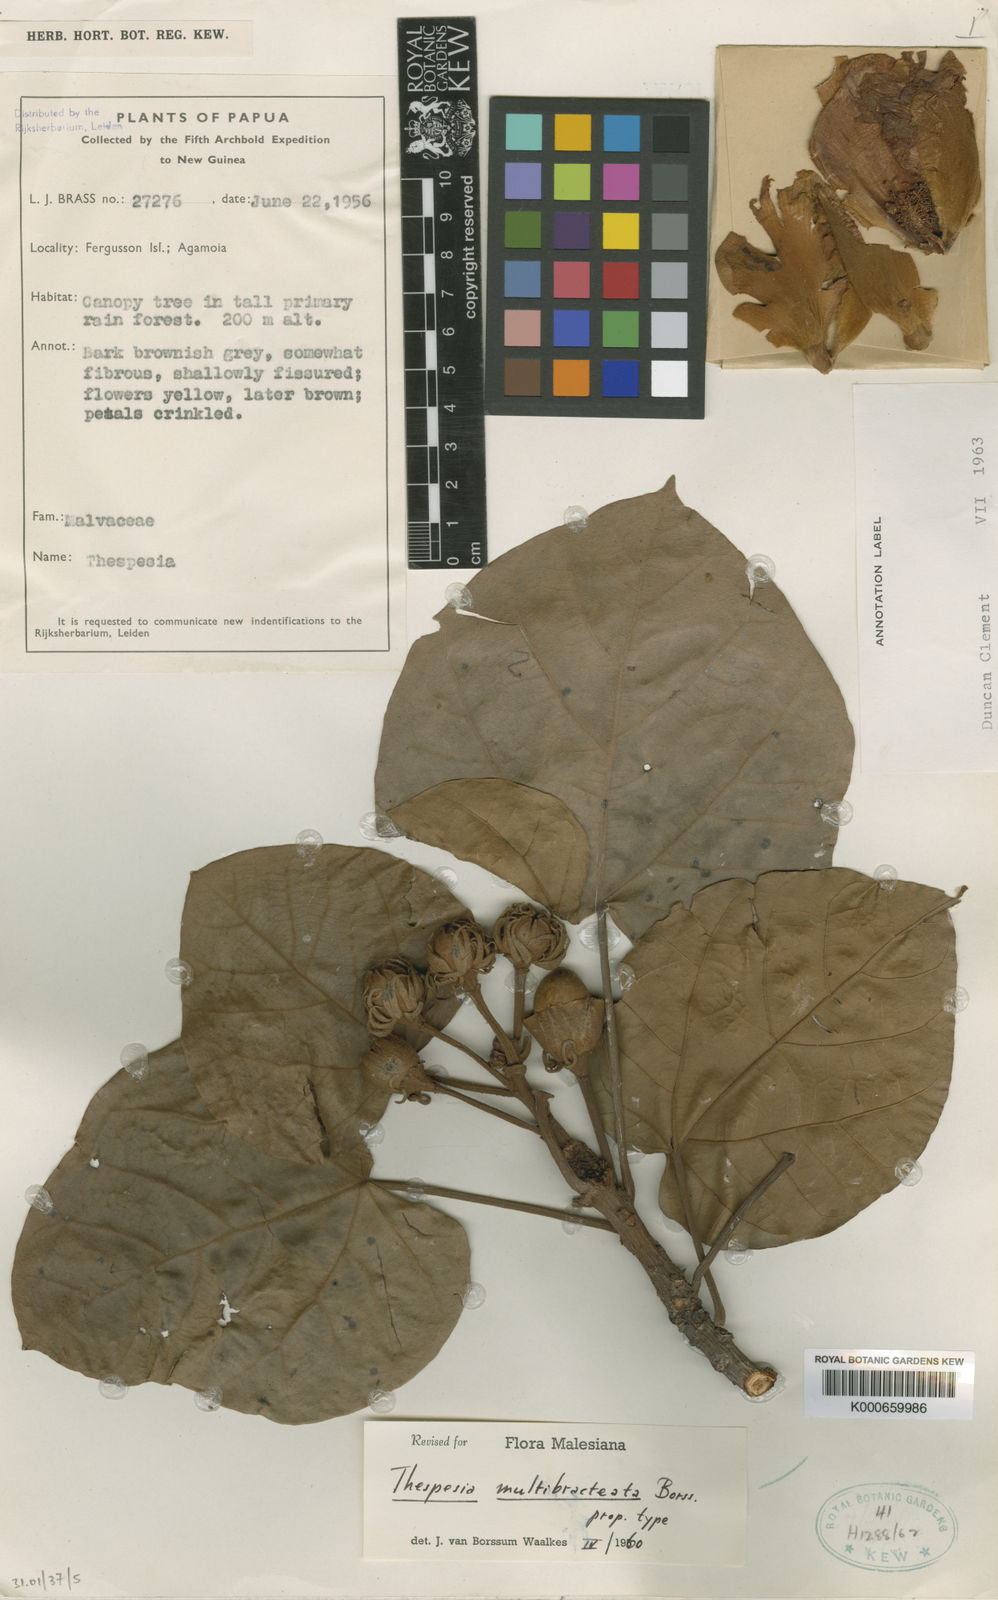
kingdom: Plantae
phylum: Tracheophyta
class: Magnoliopsida
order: Malvales
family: Malvaceae
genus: Thespesia
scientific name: Thespesia multibracteata
